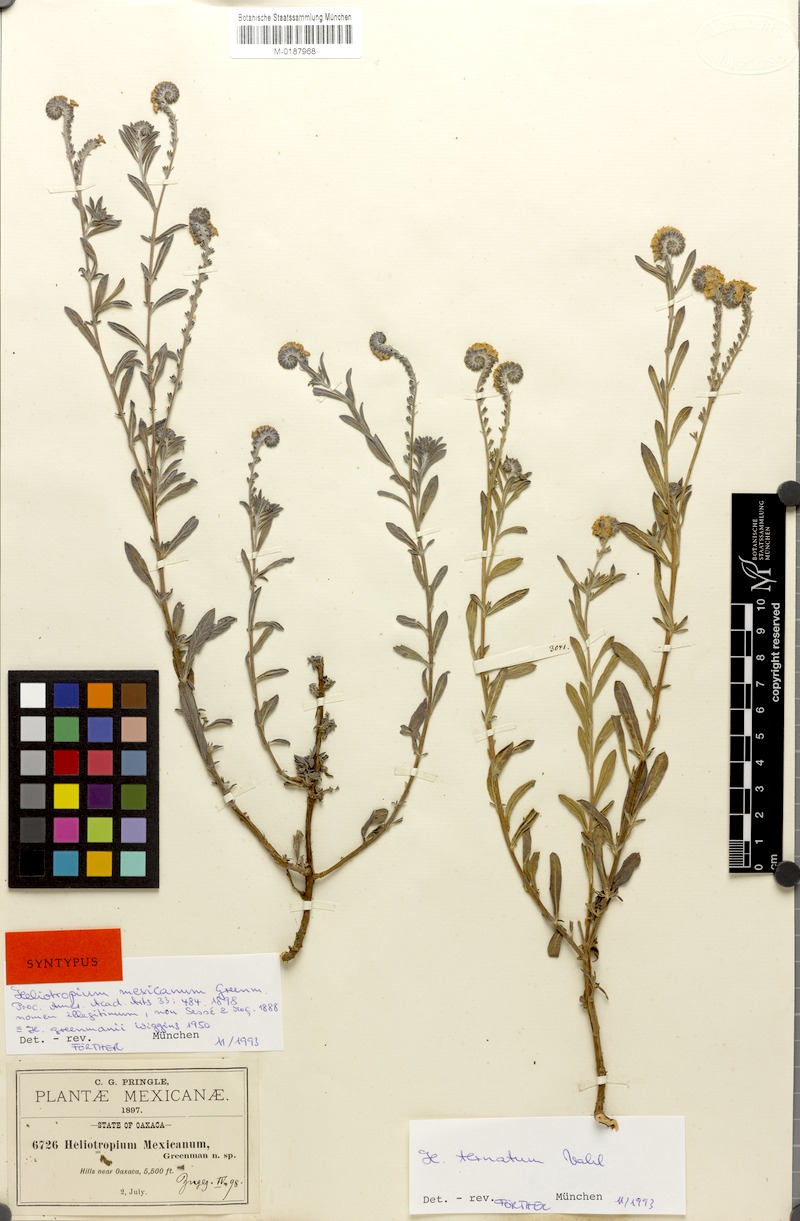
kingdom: Plantae
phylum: Tracheophyta
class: Magnoliopsida
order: Boraginales
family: Heliotropiaceae
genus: Euploca
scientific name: Euploca humilis
